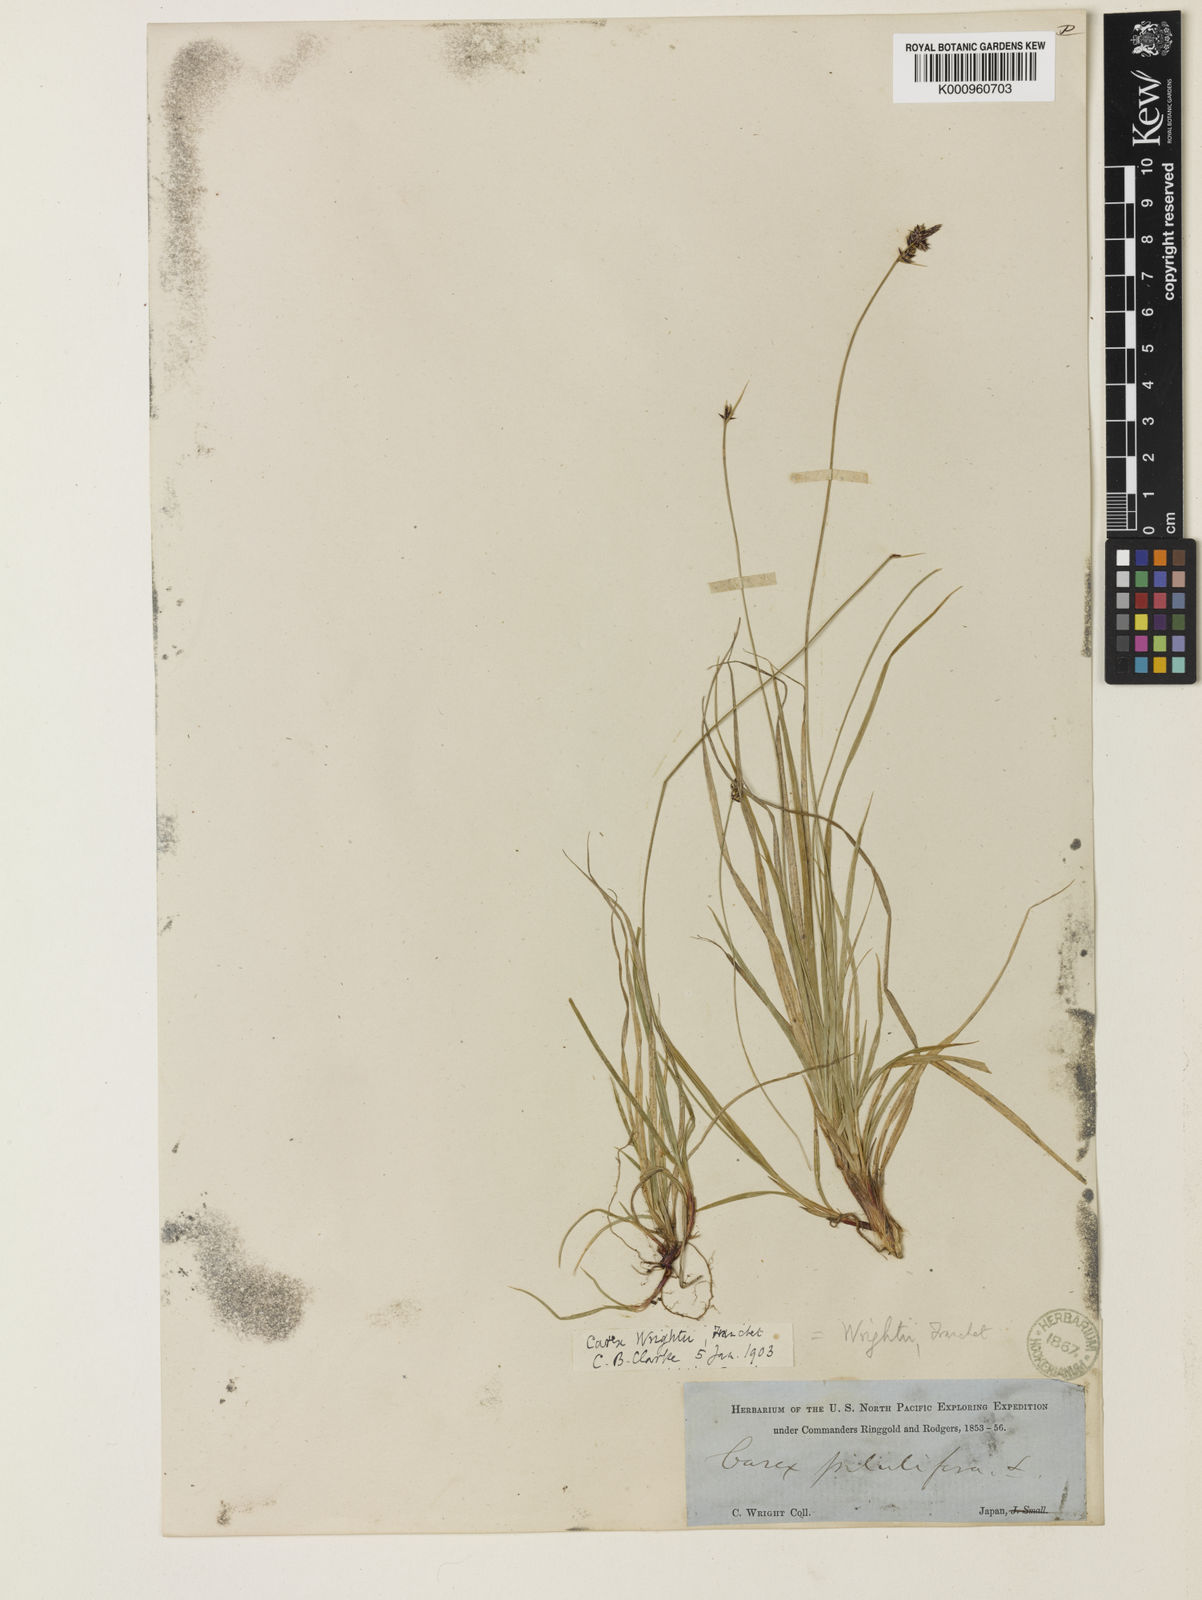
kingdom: Plantae
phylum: Tracheophyta
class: Liliopsida
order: Poales
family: Cyperaceae
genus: Carex
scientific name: Carex oxyandra
